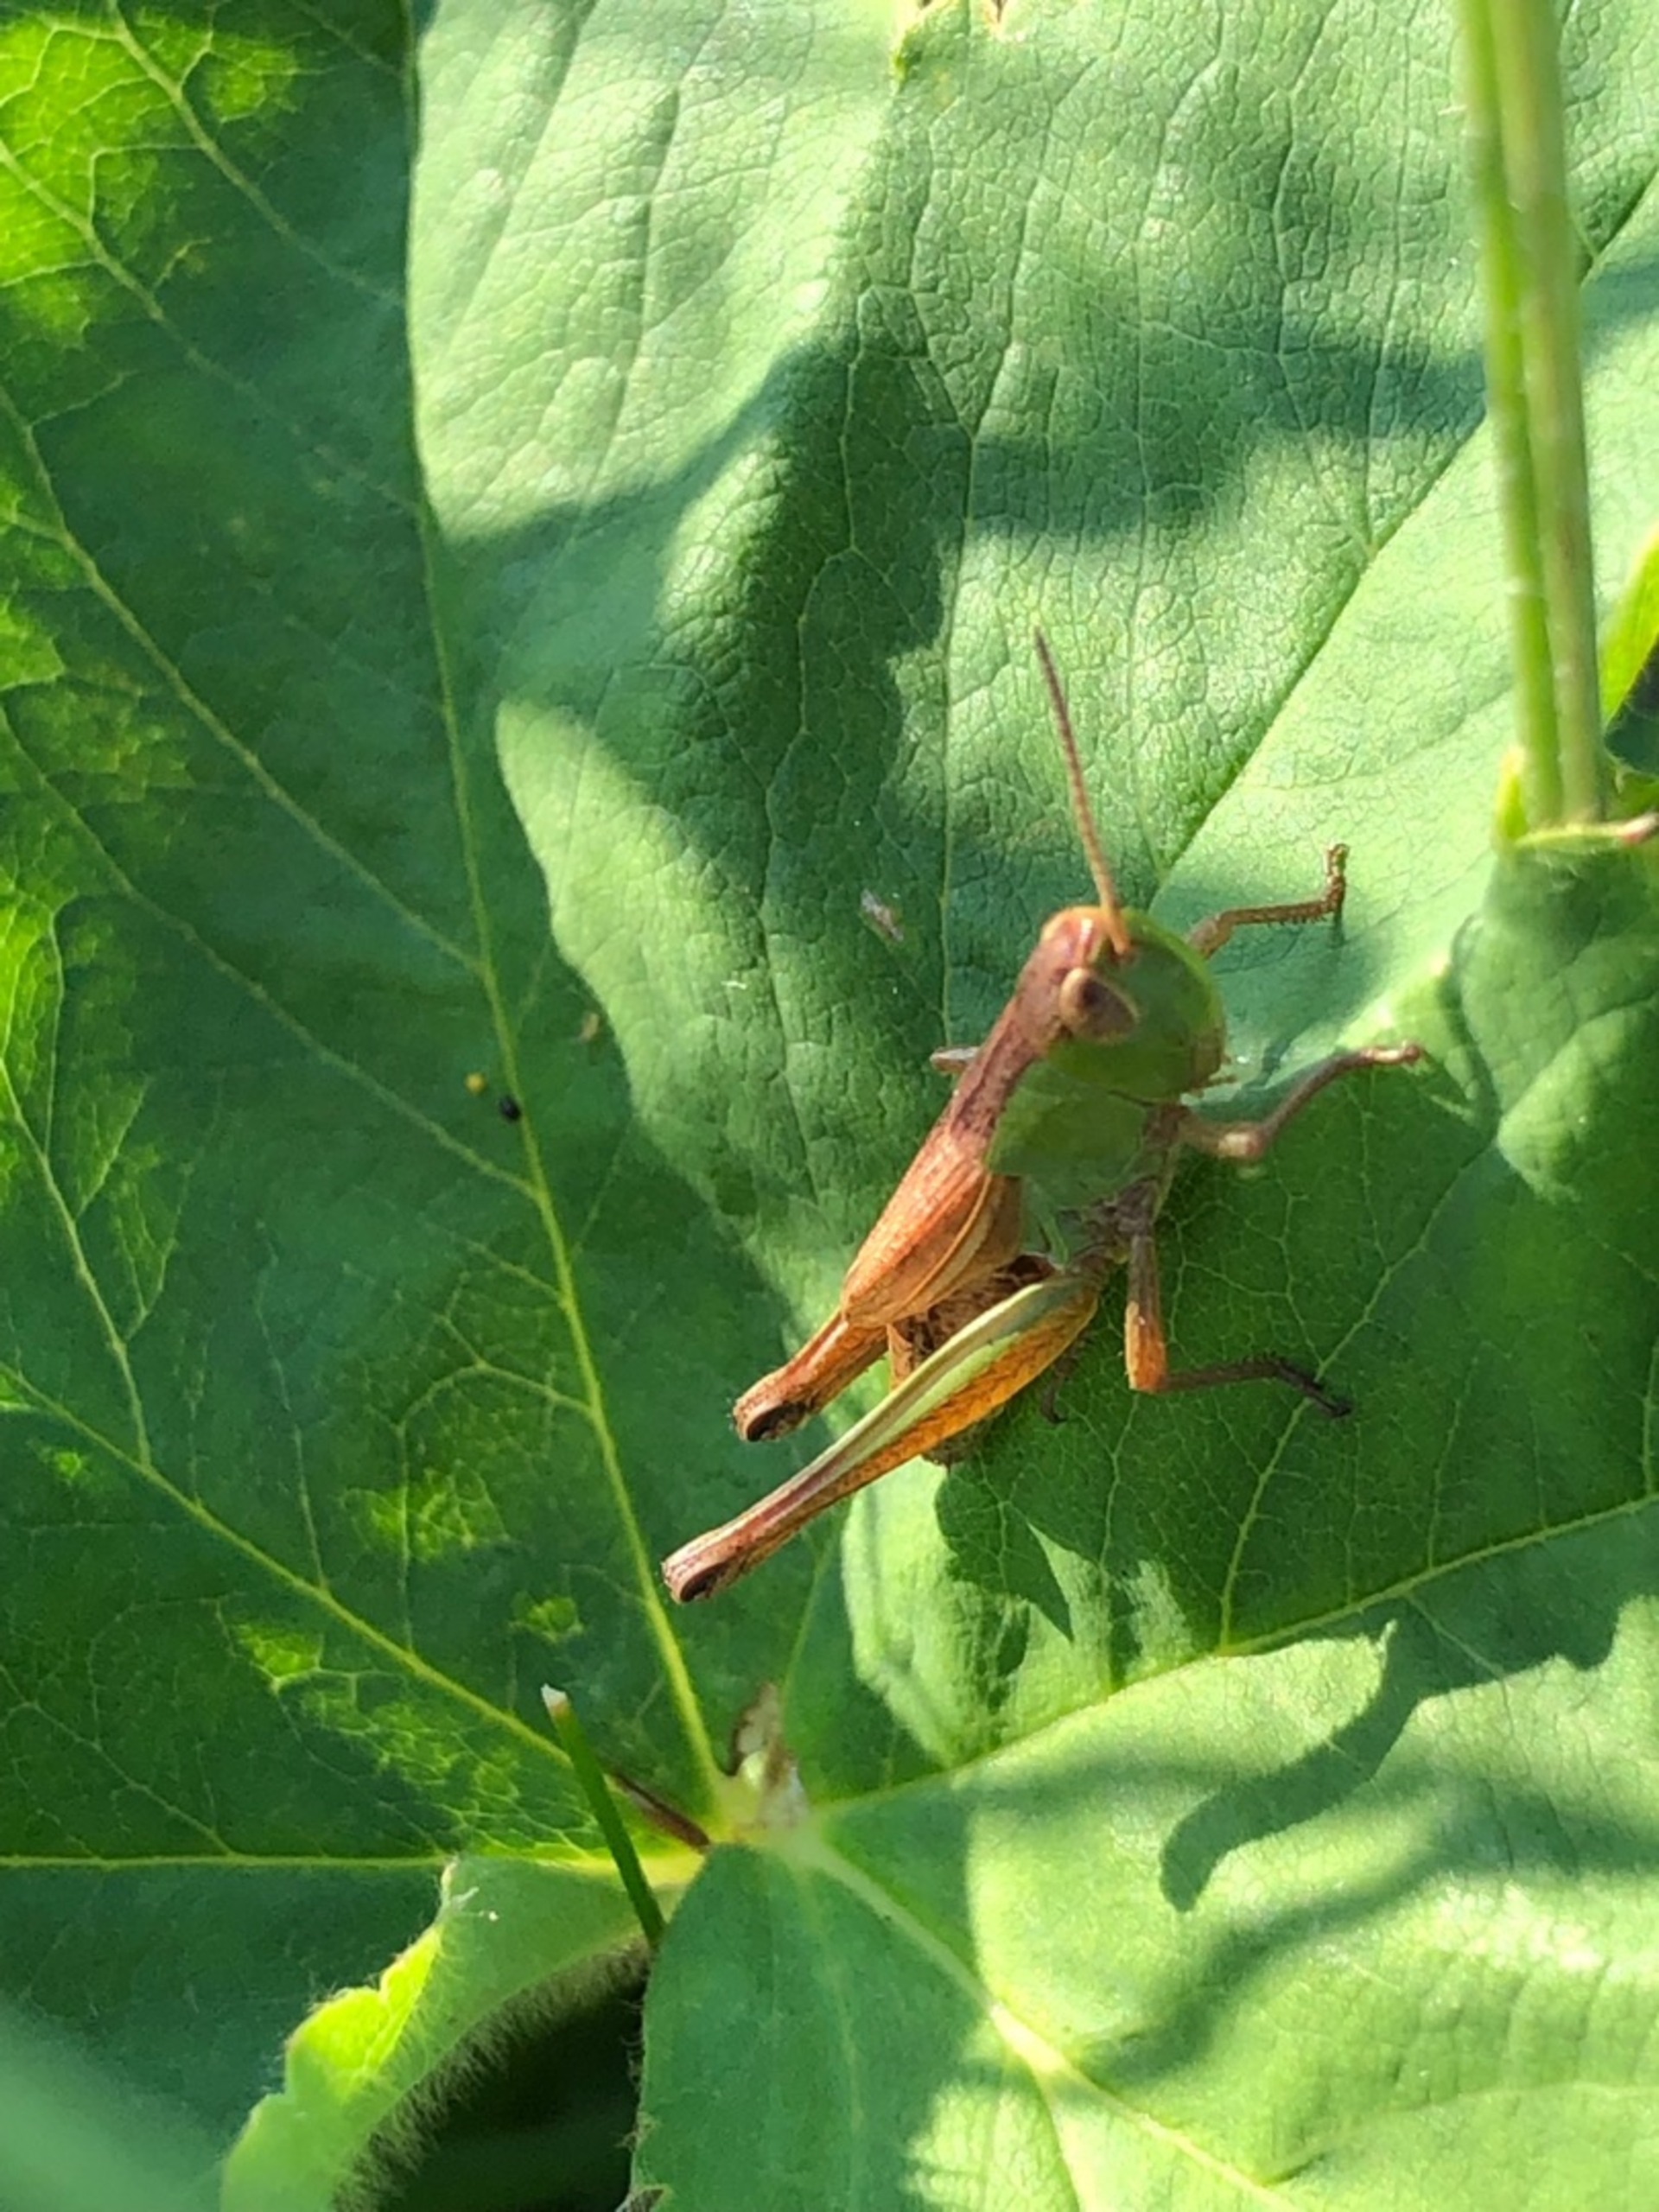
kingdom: Animalia
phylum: Arthropoda
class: Insecta
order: Orthoptera
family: Acrididae
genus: Pseudochorthippus
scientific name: Pseudochorthippus parallelus
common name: Enggræshoppe
